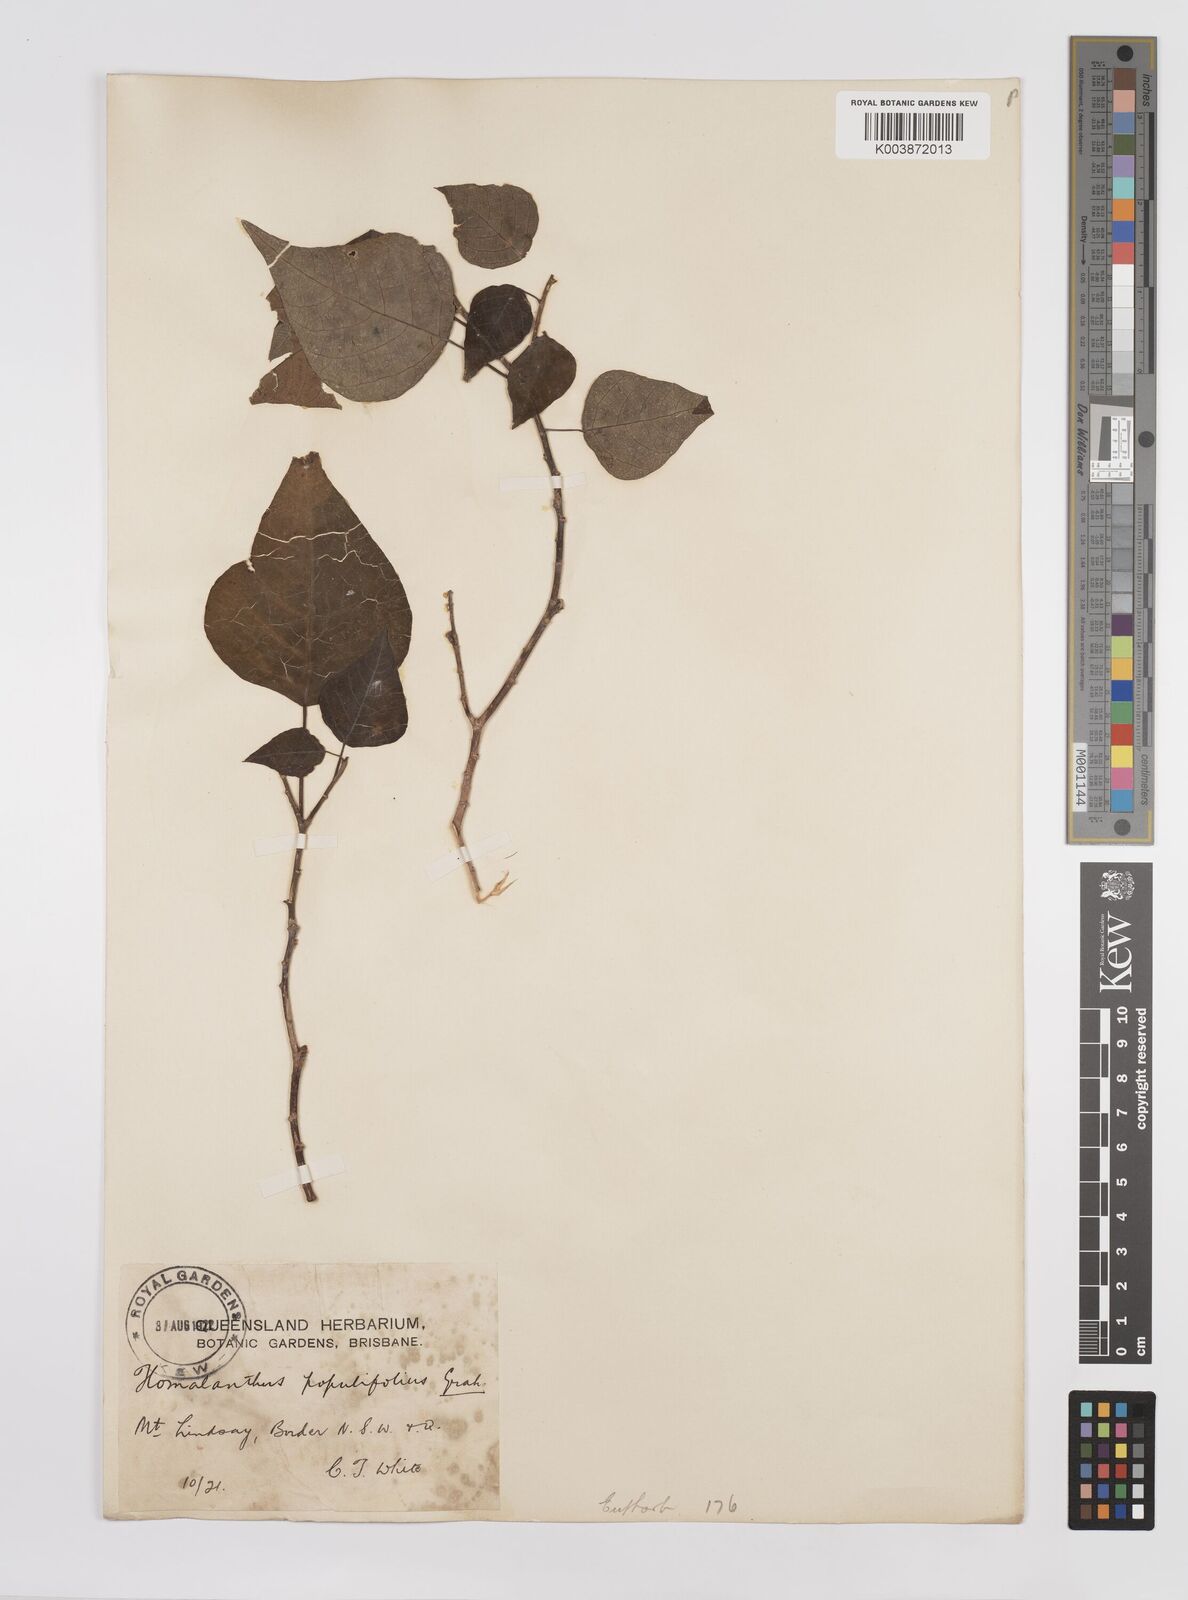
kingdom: Plantae
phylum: Tracheophyta
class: Magnoliopsida
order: Malpighiales
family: Euphorbiaceae
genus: Homalanthus
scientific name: Homalanthus populifolius
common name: Queensland poplar
